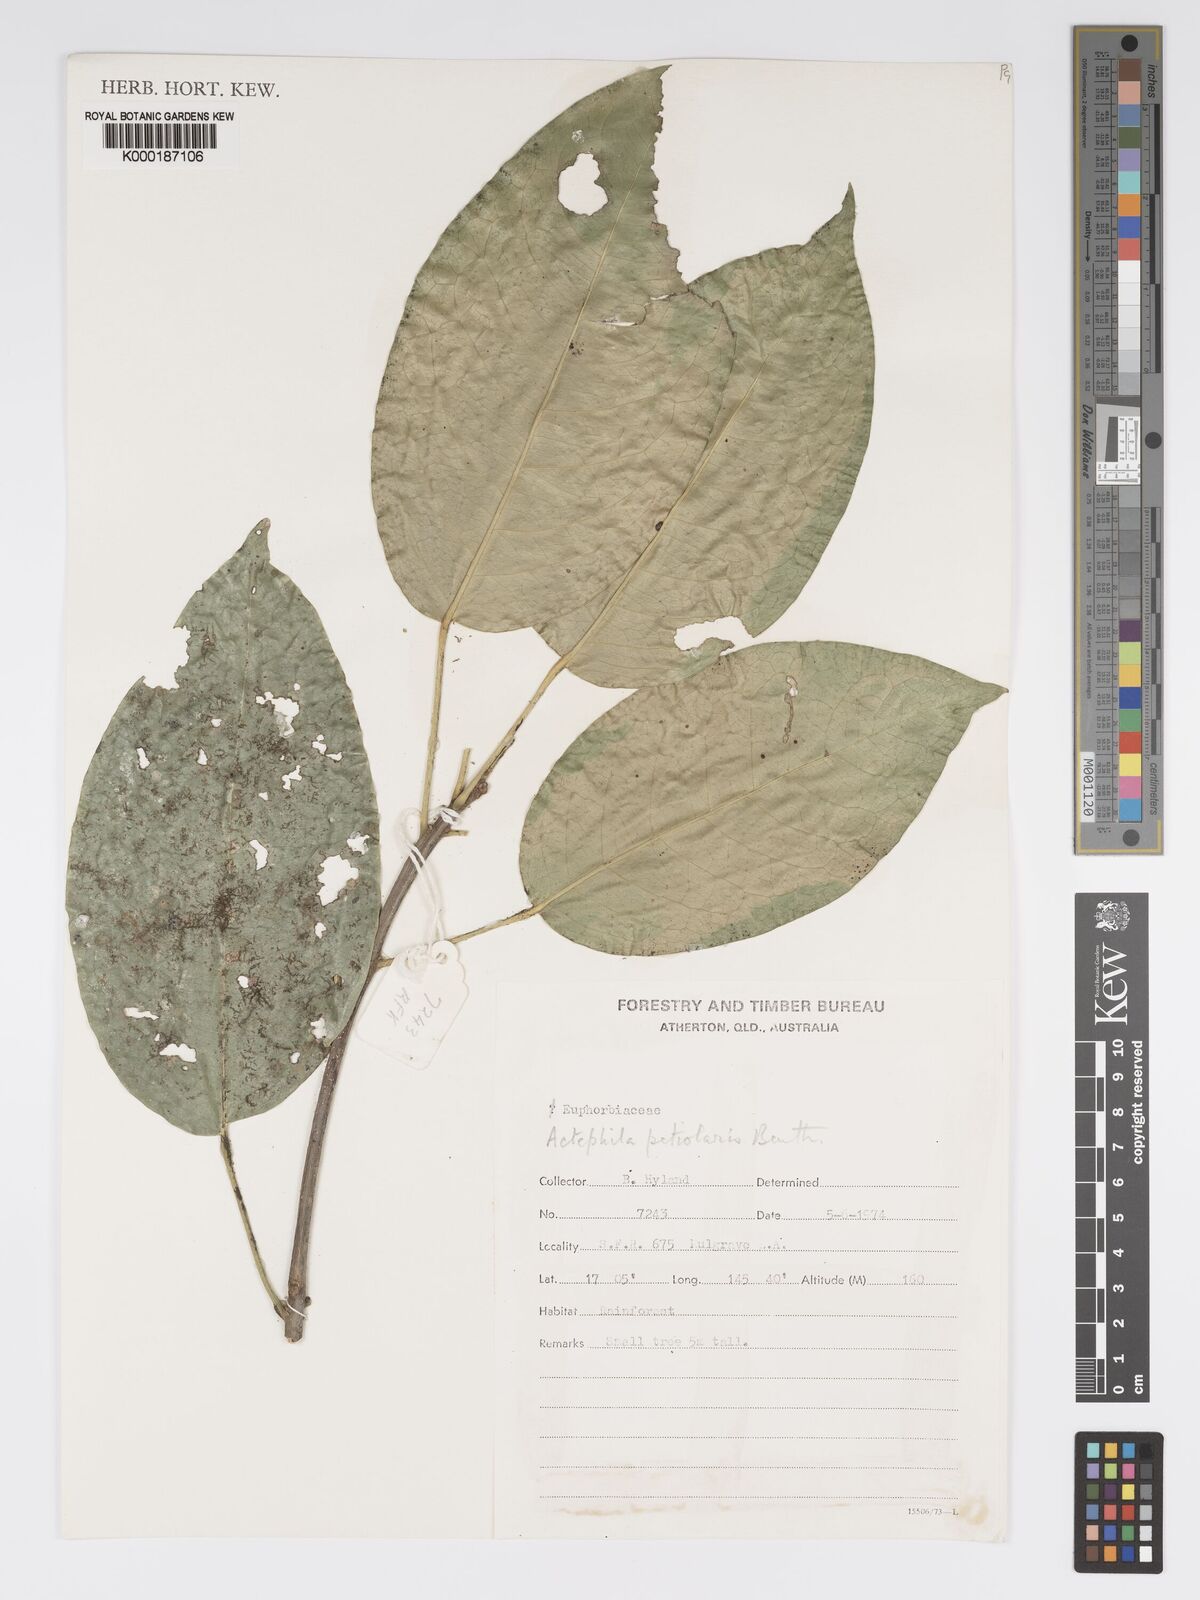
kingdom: Plantae
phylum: Tracheophyta
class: Magnoliopsida
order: Malpighiales
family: Phyllanthaceae
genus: Actephila
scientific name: Actephila lindleyi
